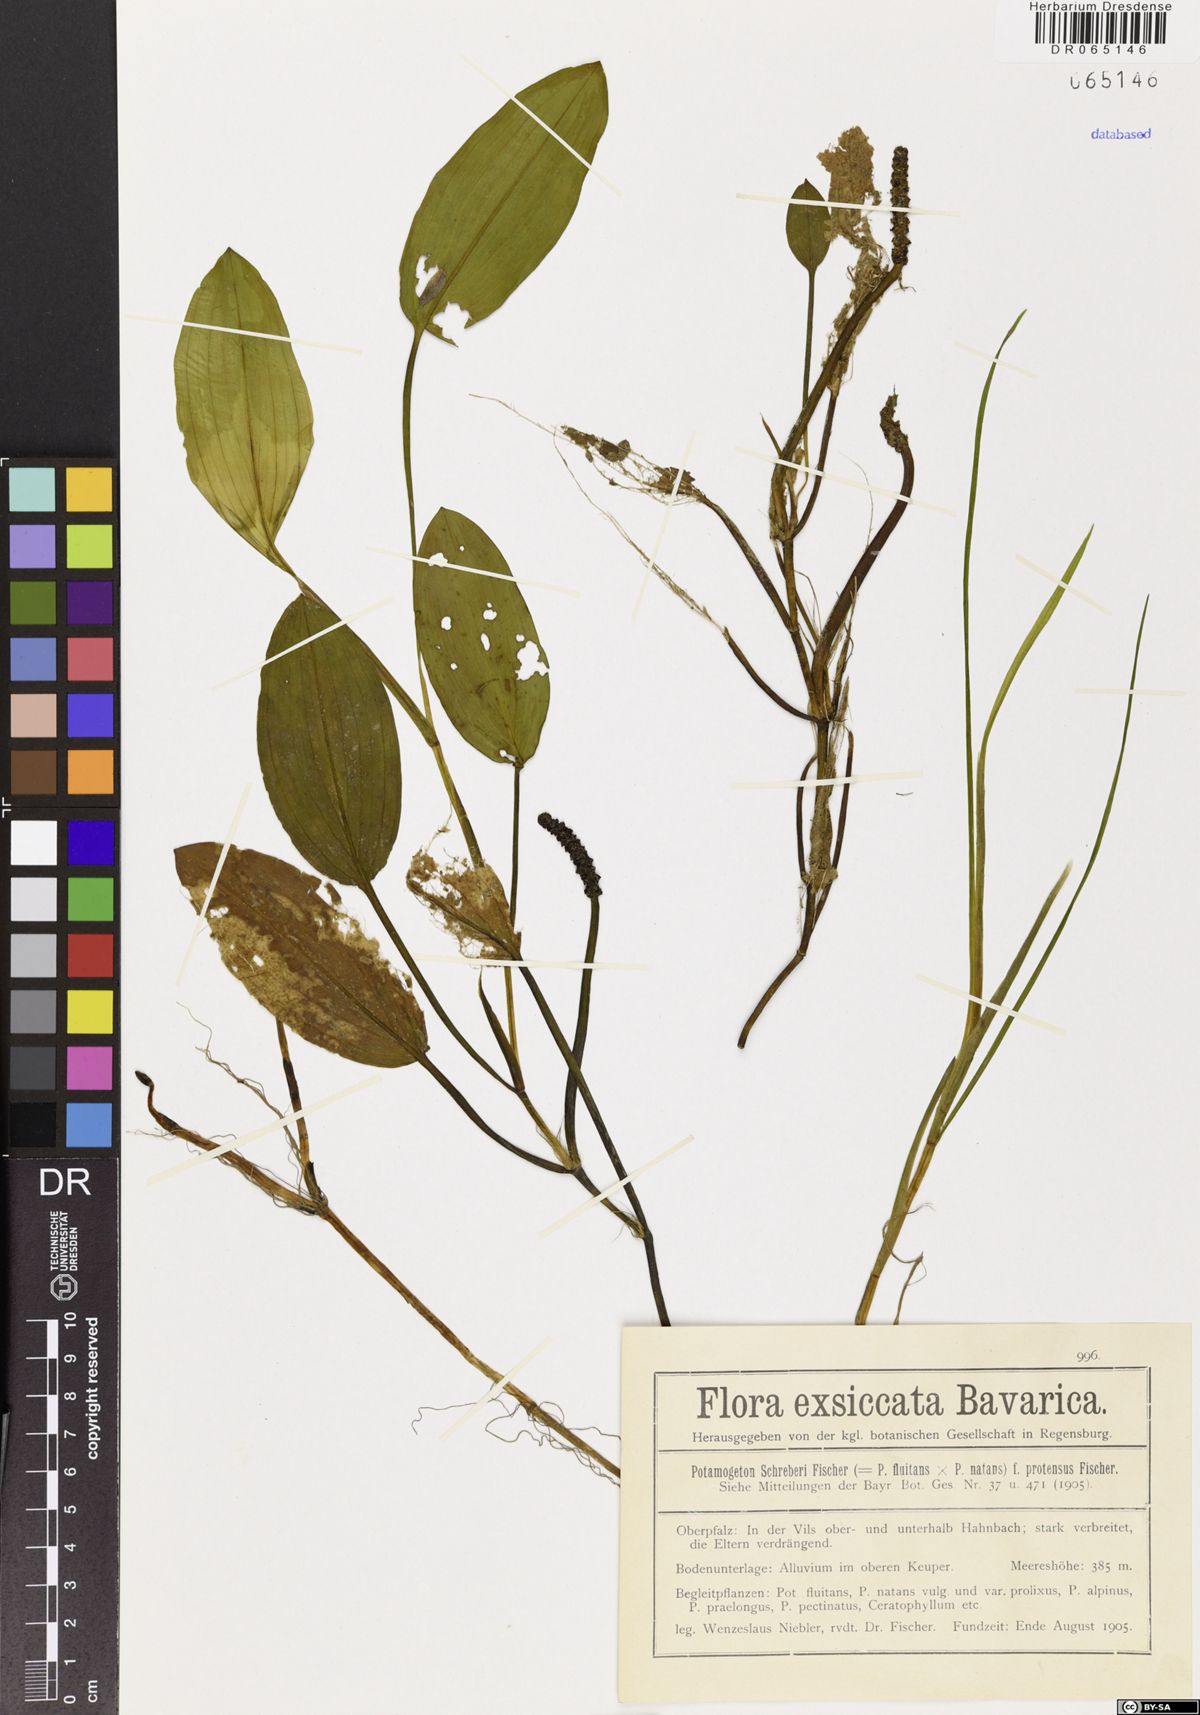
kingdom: Plantae
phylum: Tracheophyta
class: Liliopsida
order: Alismatales
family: Potamogetonaceae
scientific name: Potamogetonaceae
